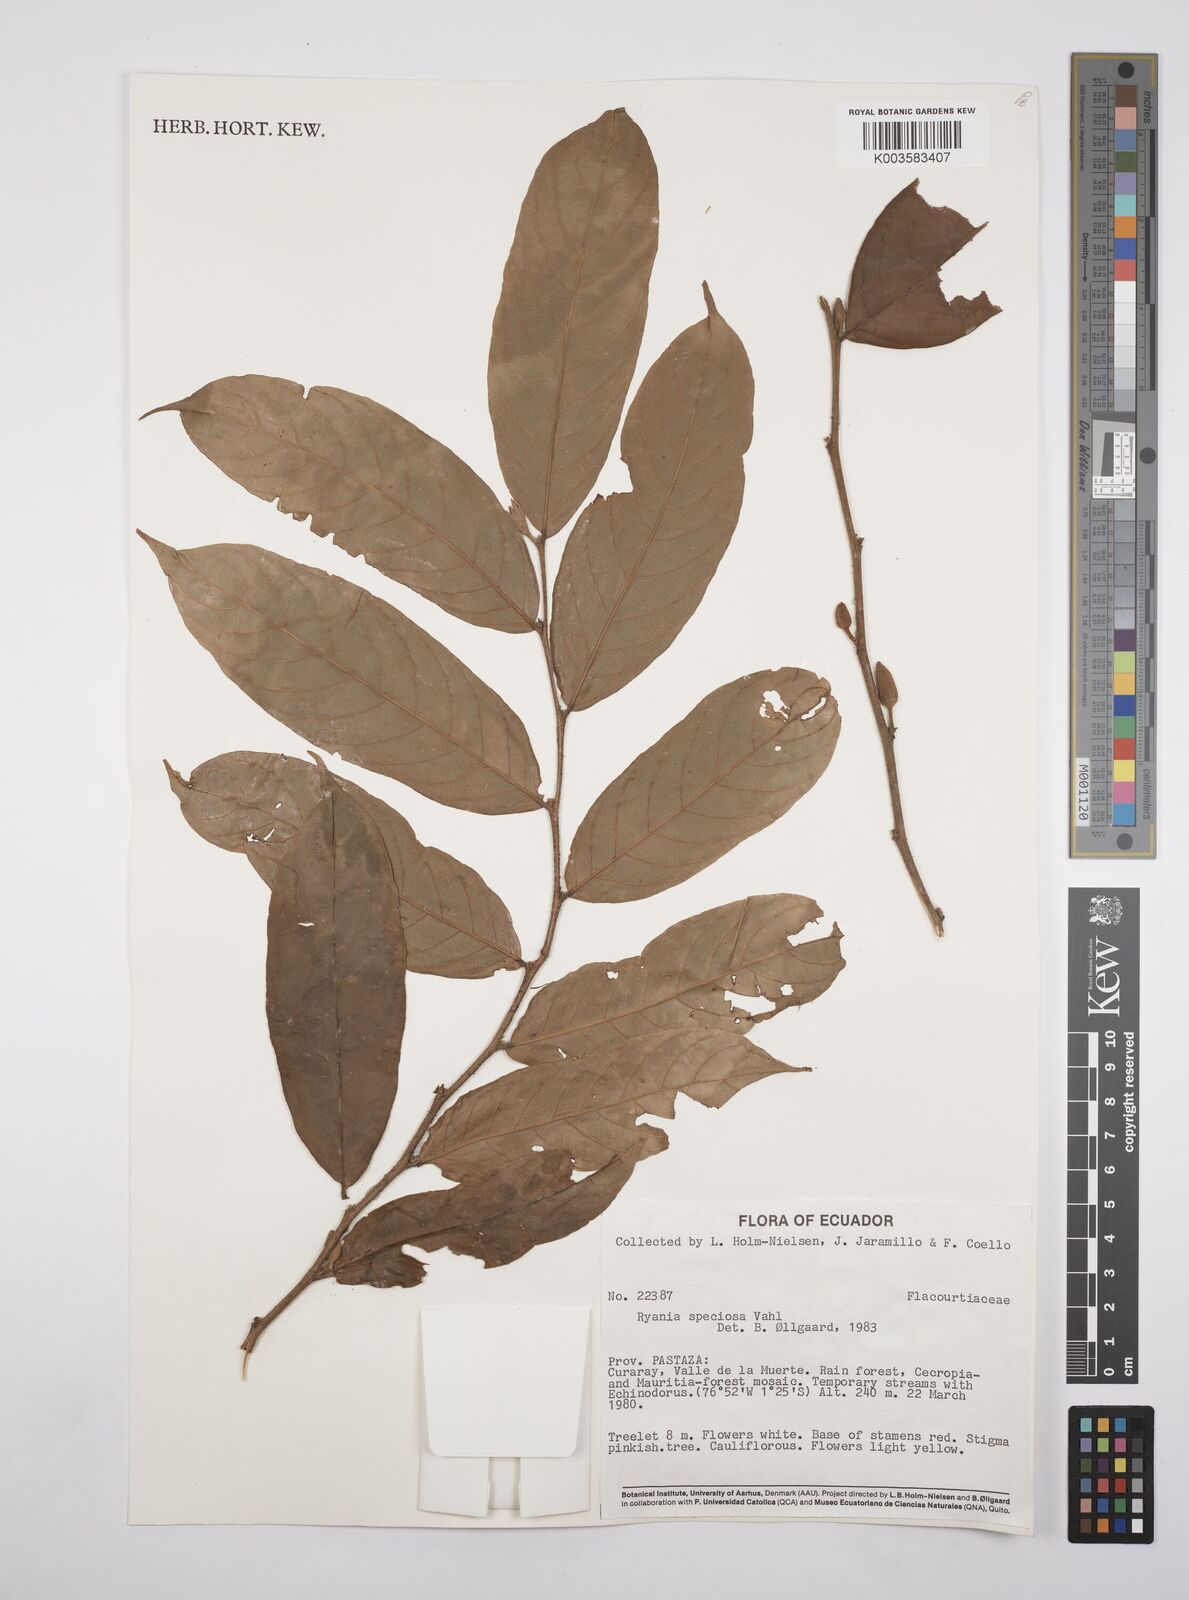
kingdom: Plantae
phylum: Tracheophyta
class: Magnoliopsida
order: Malpighiales
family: Salicaceae
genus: Ryania
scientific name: Ryania speciosa
